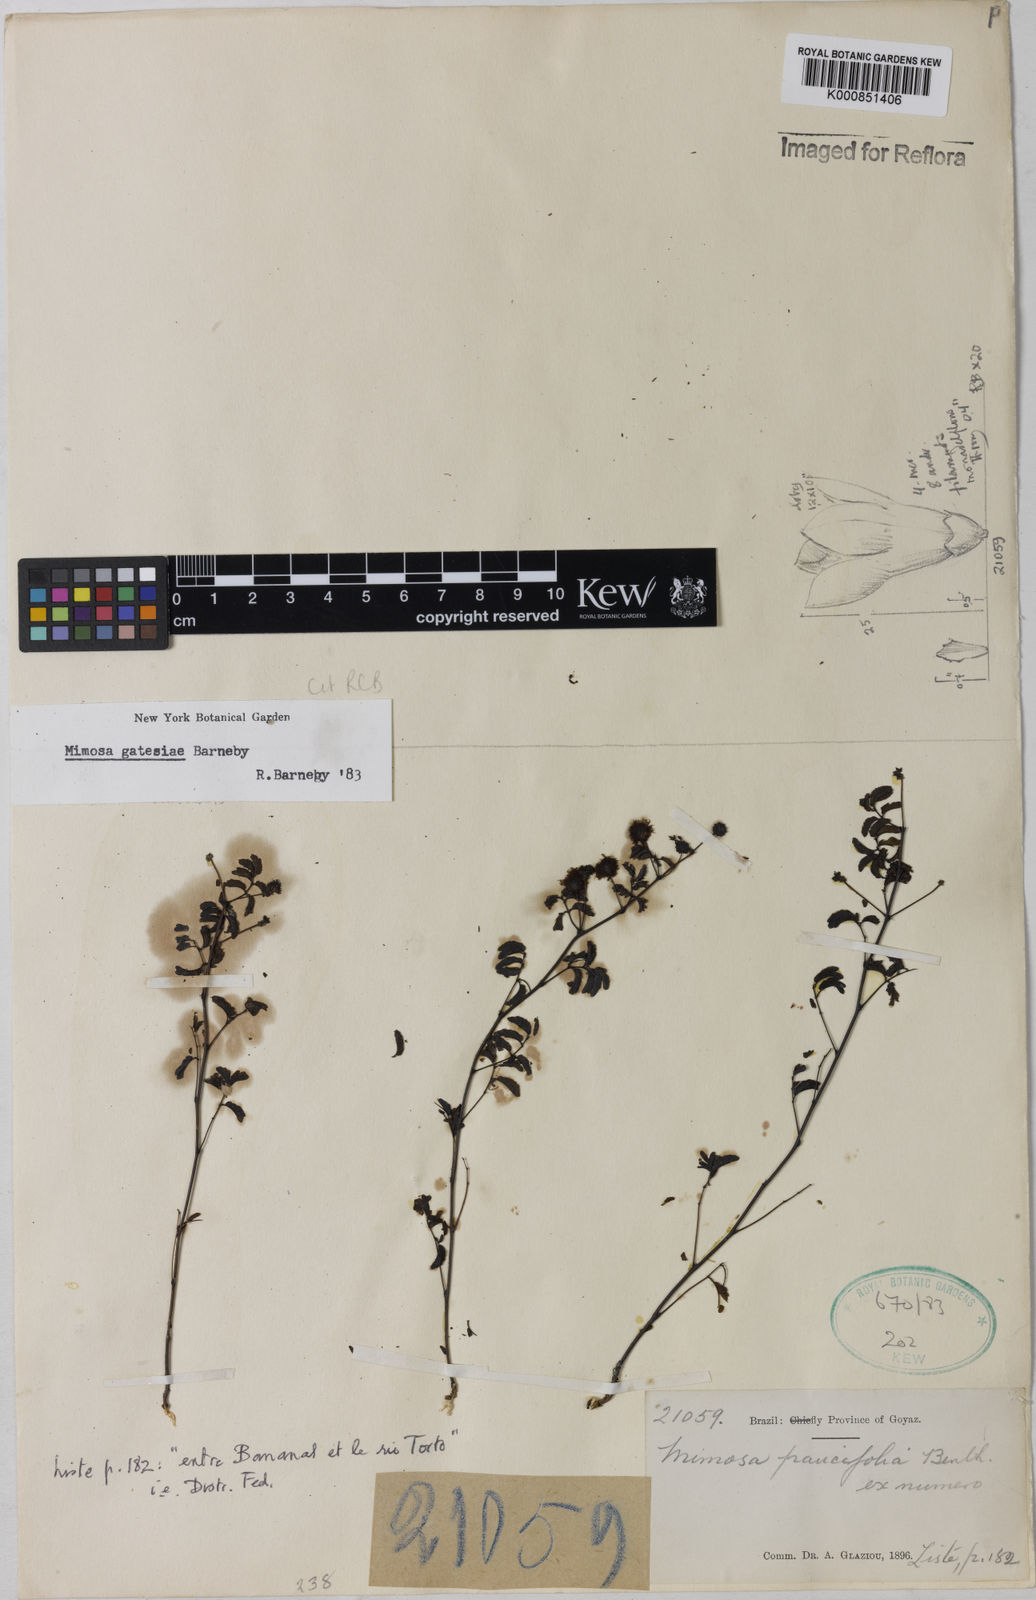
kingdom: Plantae
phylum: Tracheophyta
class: Magnoliopsida
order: Fabales
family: Fabaceae
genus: Mimosa
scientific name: Mimosa gatesiae
